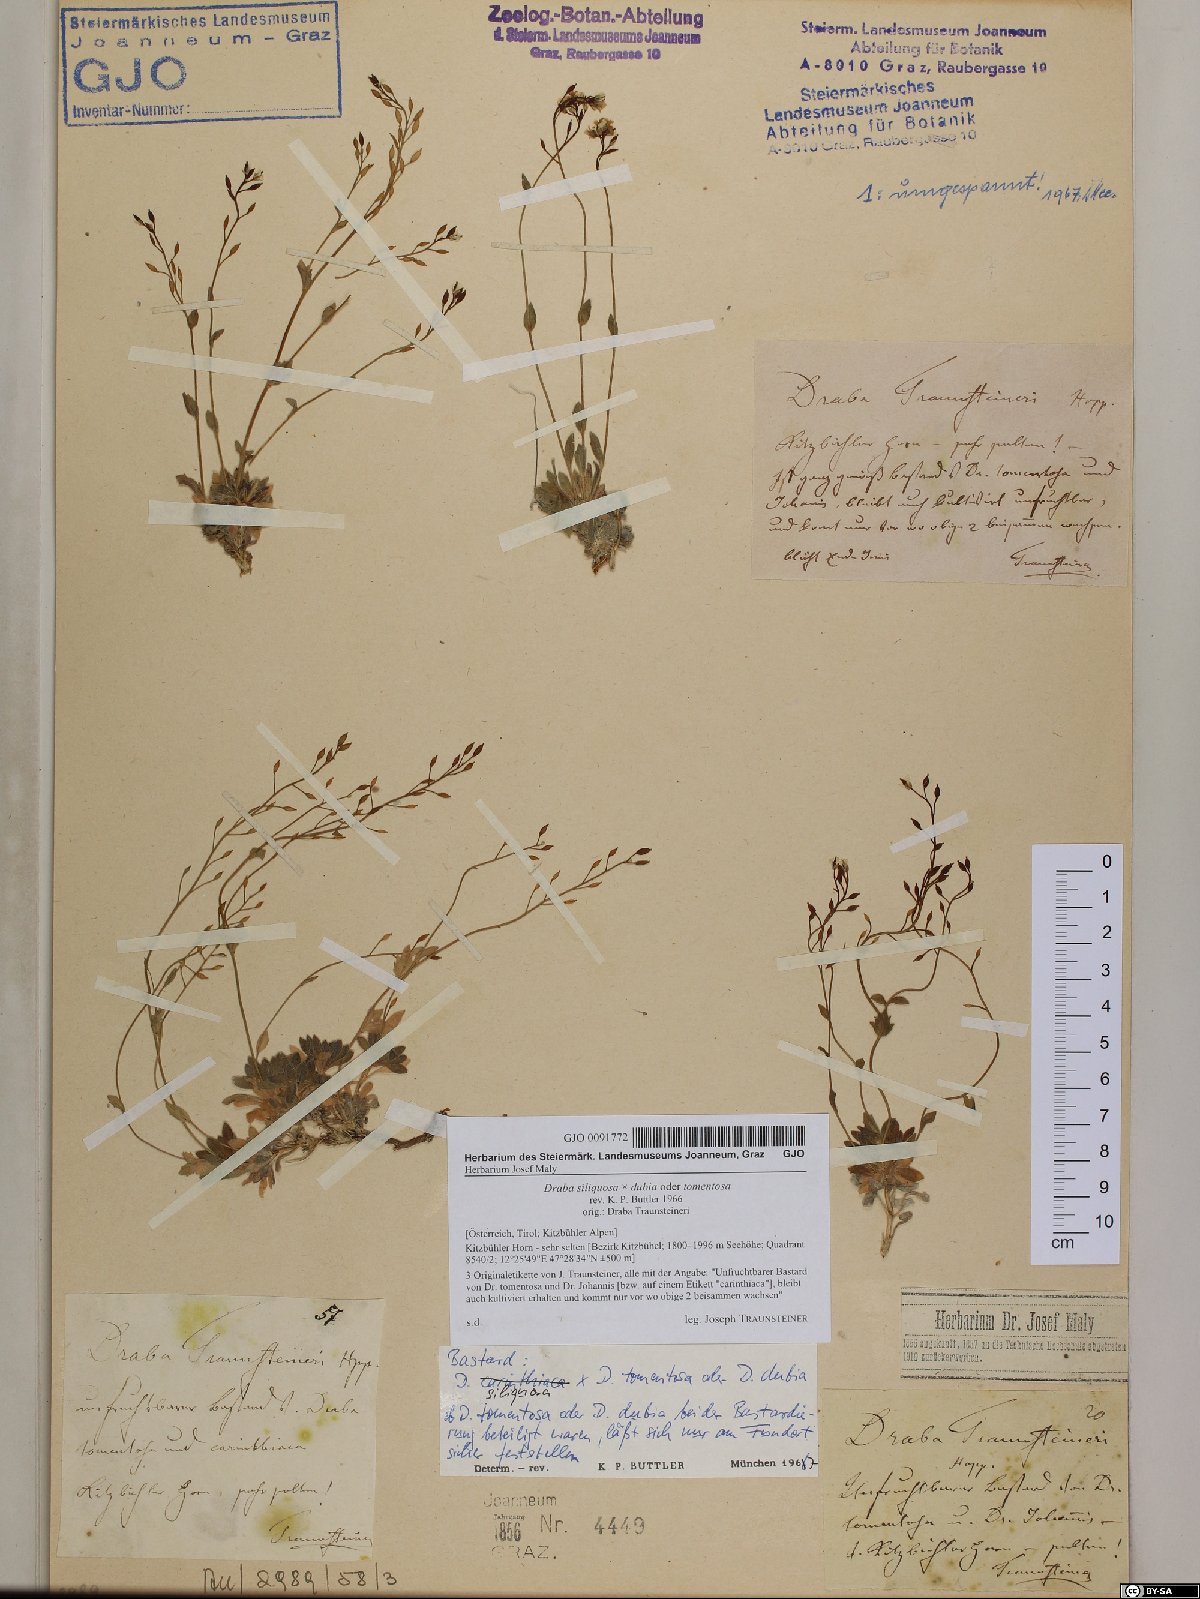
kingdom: Plantae
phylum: Tracheophyta
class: Magnoliopsida
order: Brassicales
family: Brassicaceae
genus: Draba
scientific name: Draba siliquosa
